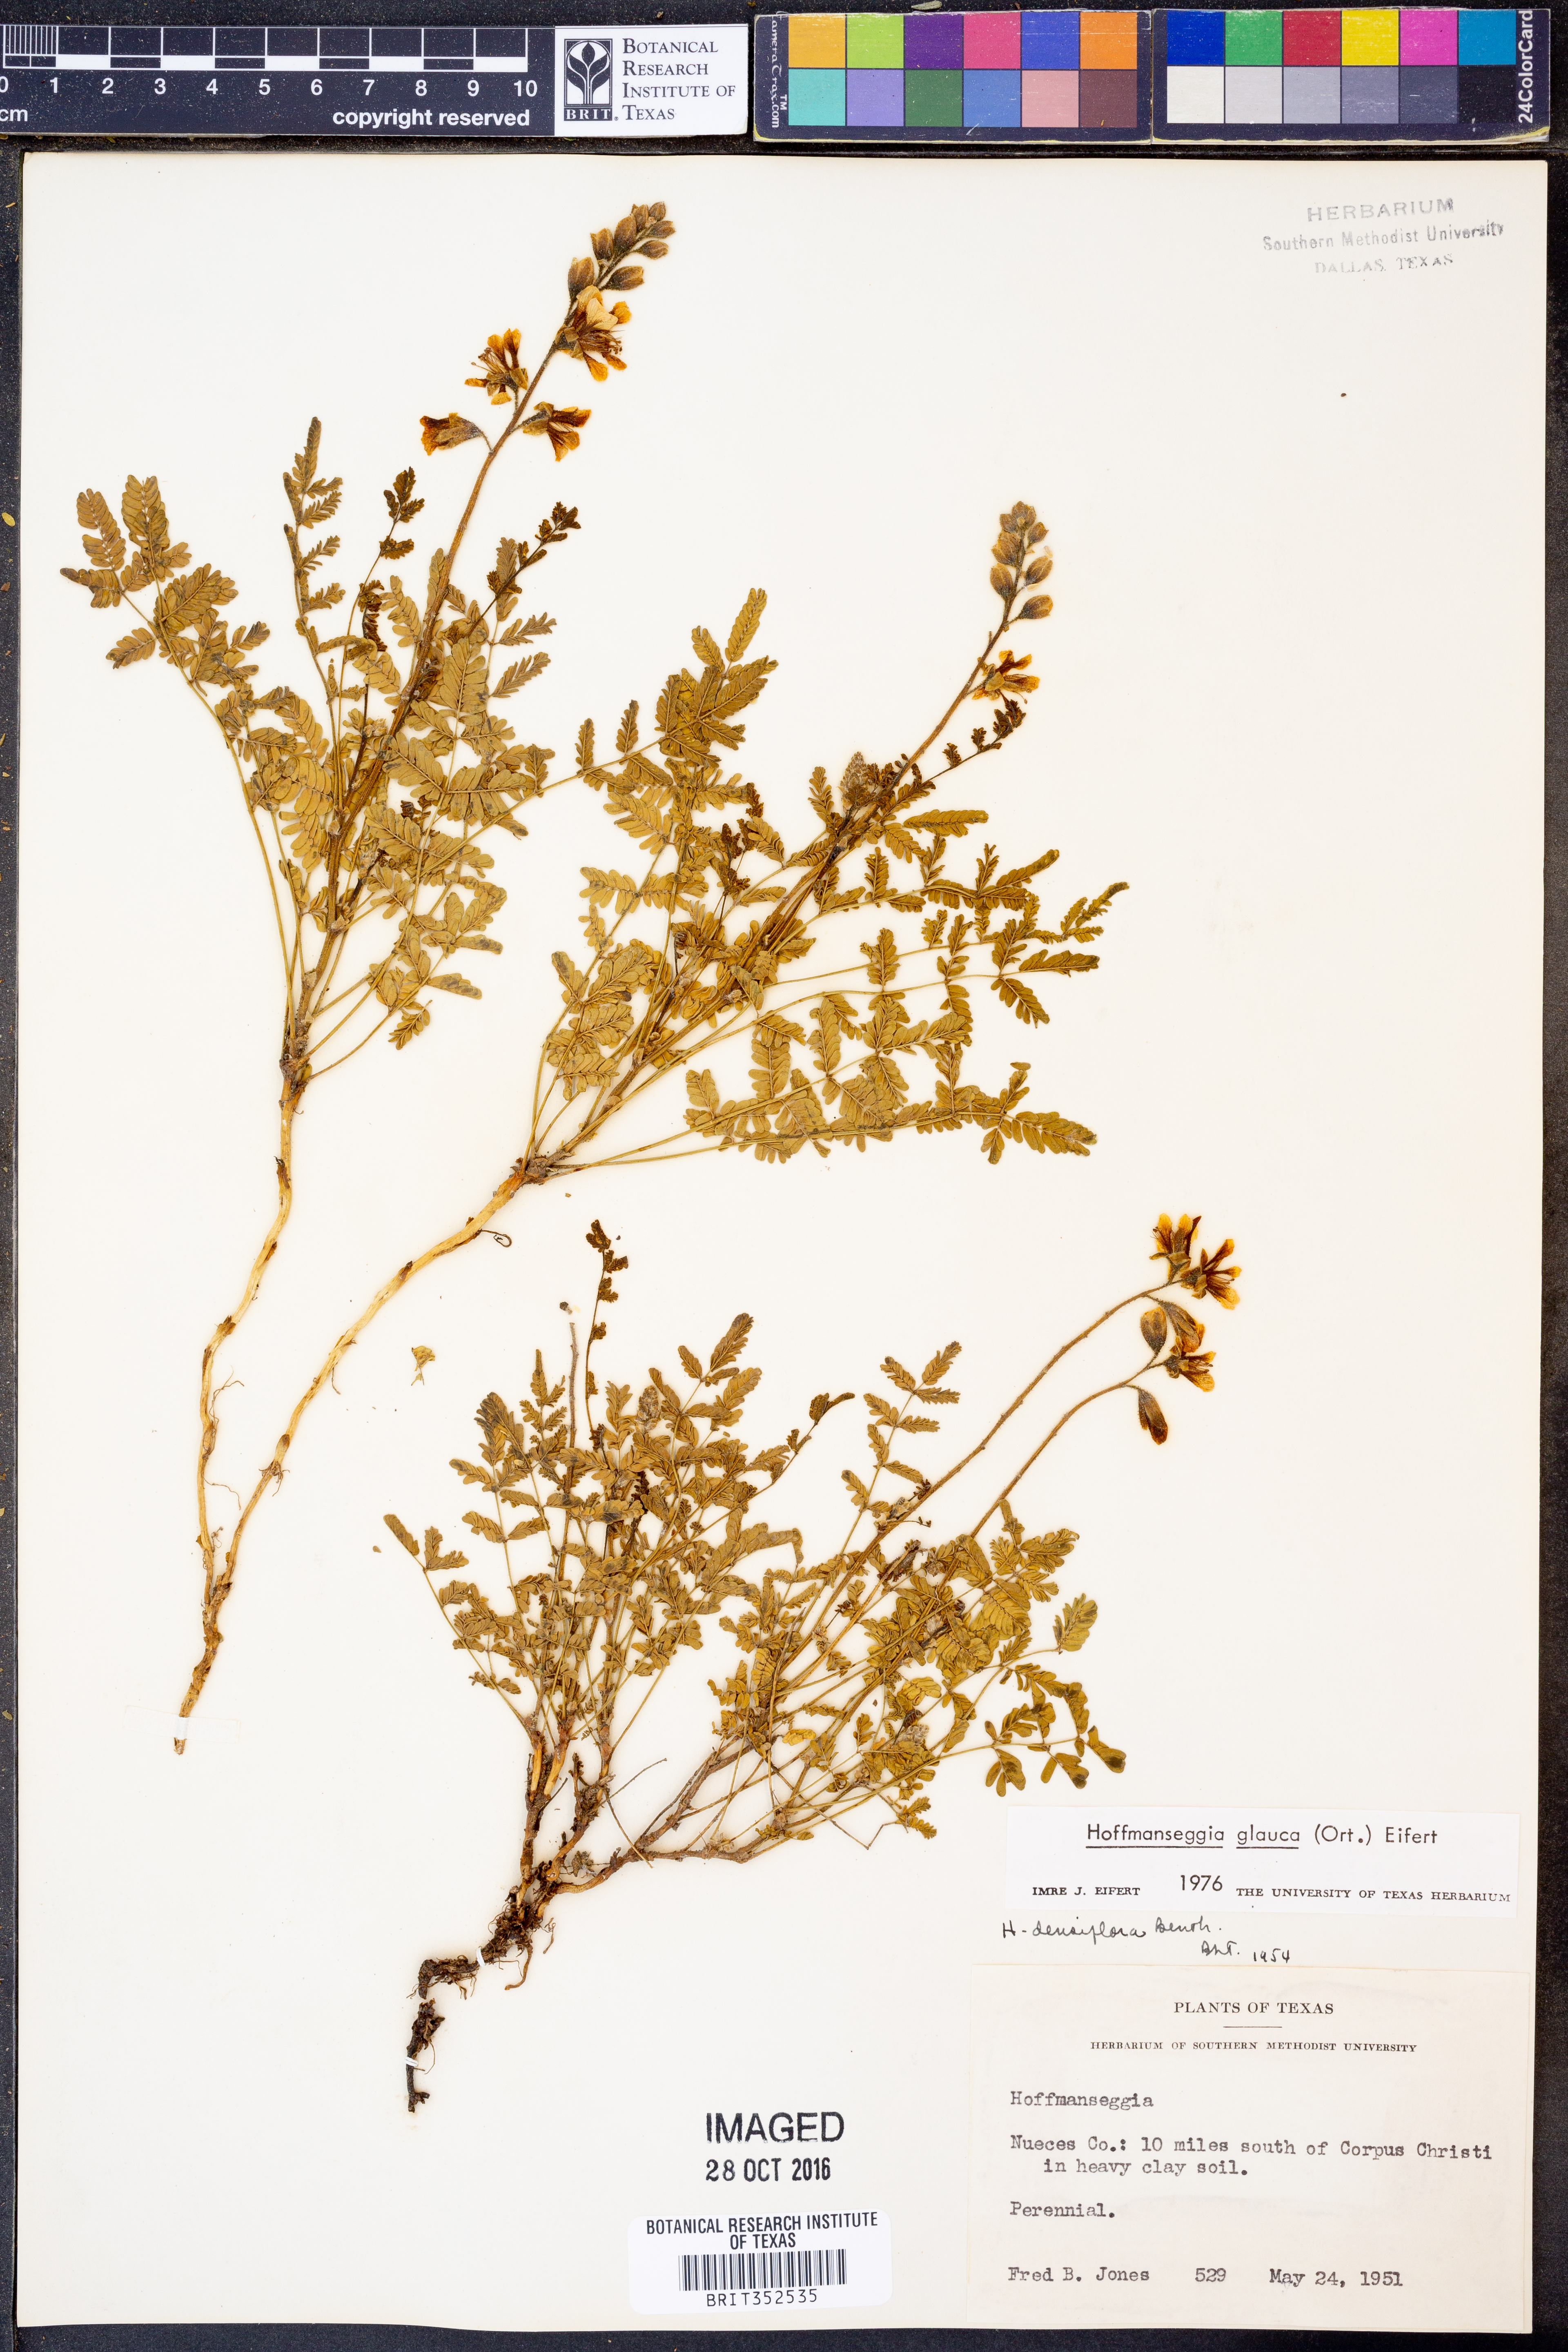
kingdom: Plantae
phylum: Tracheophyta
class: Magnoliopsida
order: Fabales
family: Fabaceae
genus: Hoffmannseggia
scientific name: Hoffmannseggia glauca
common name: Pignut
